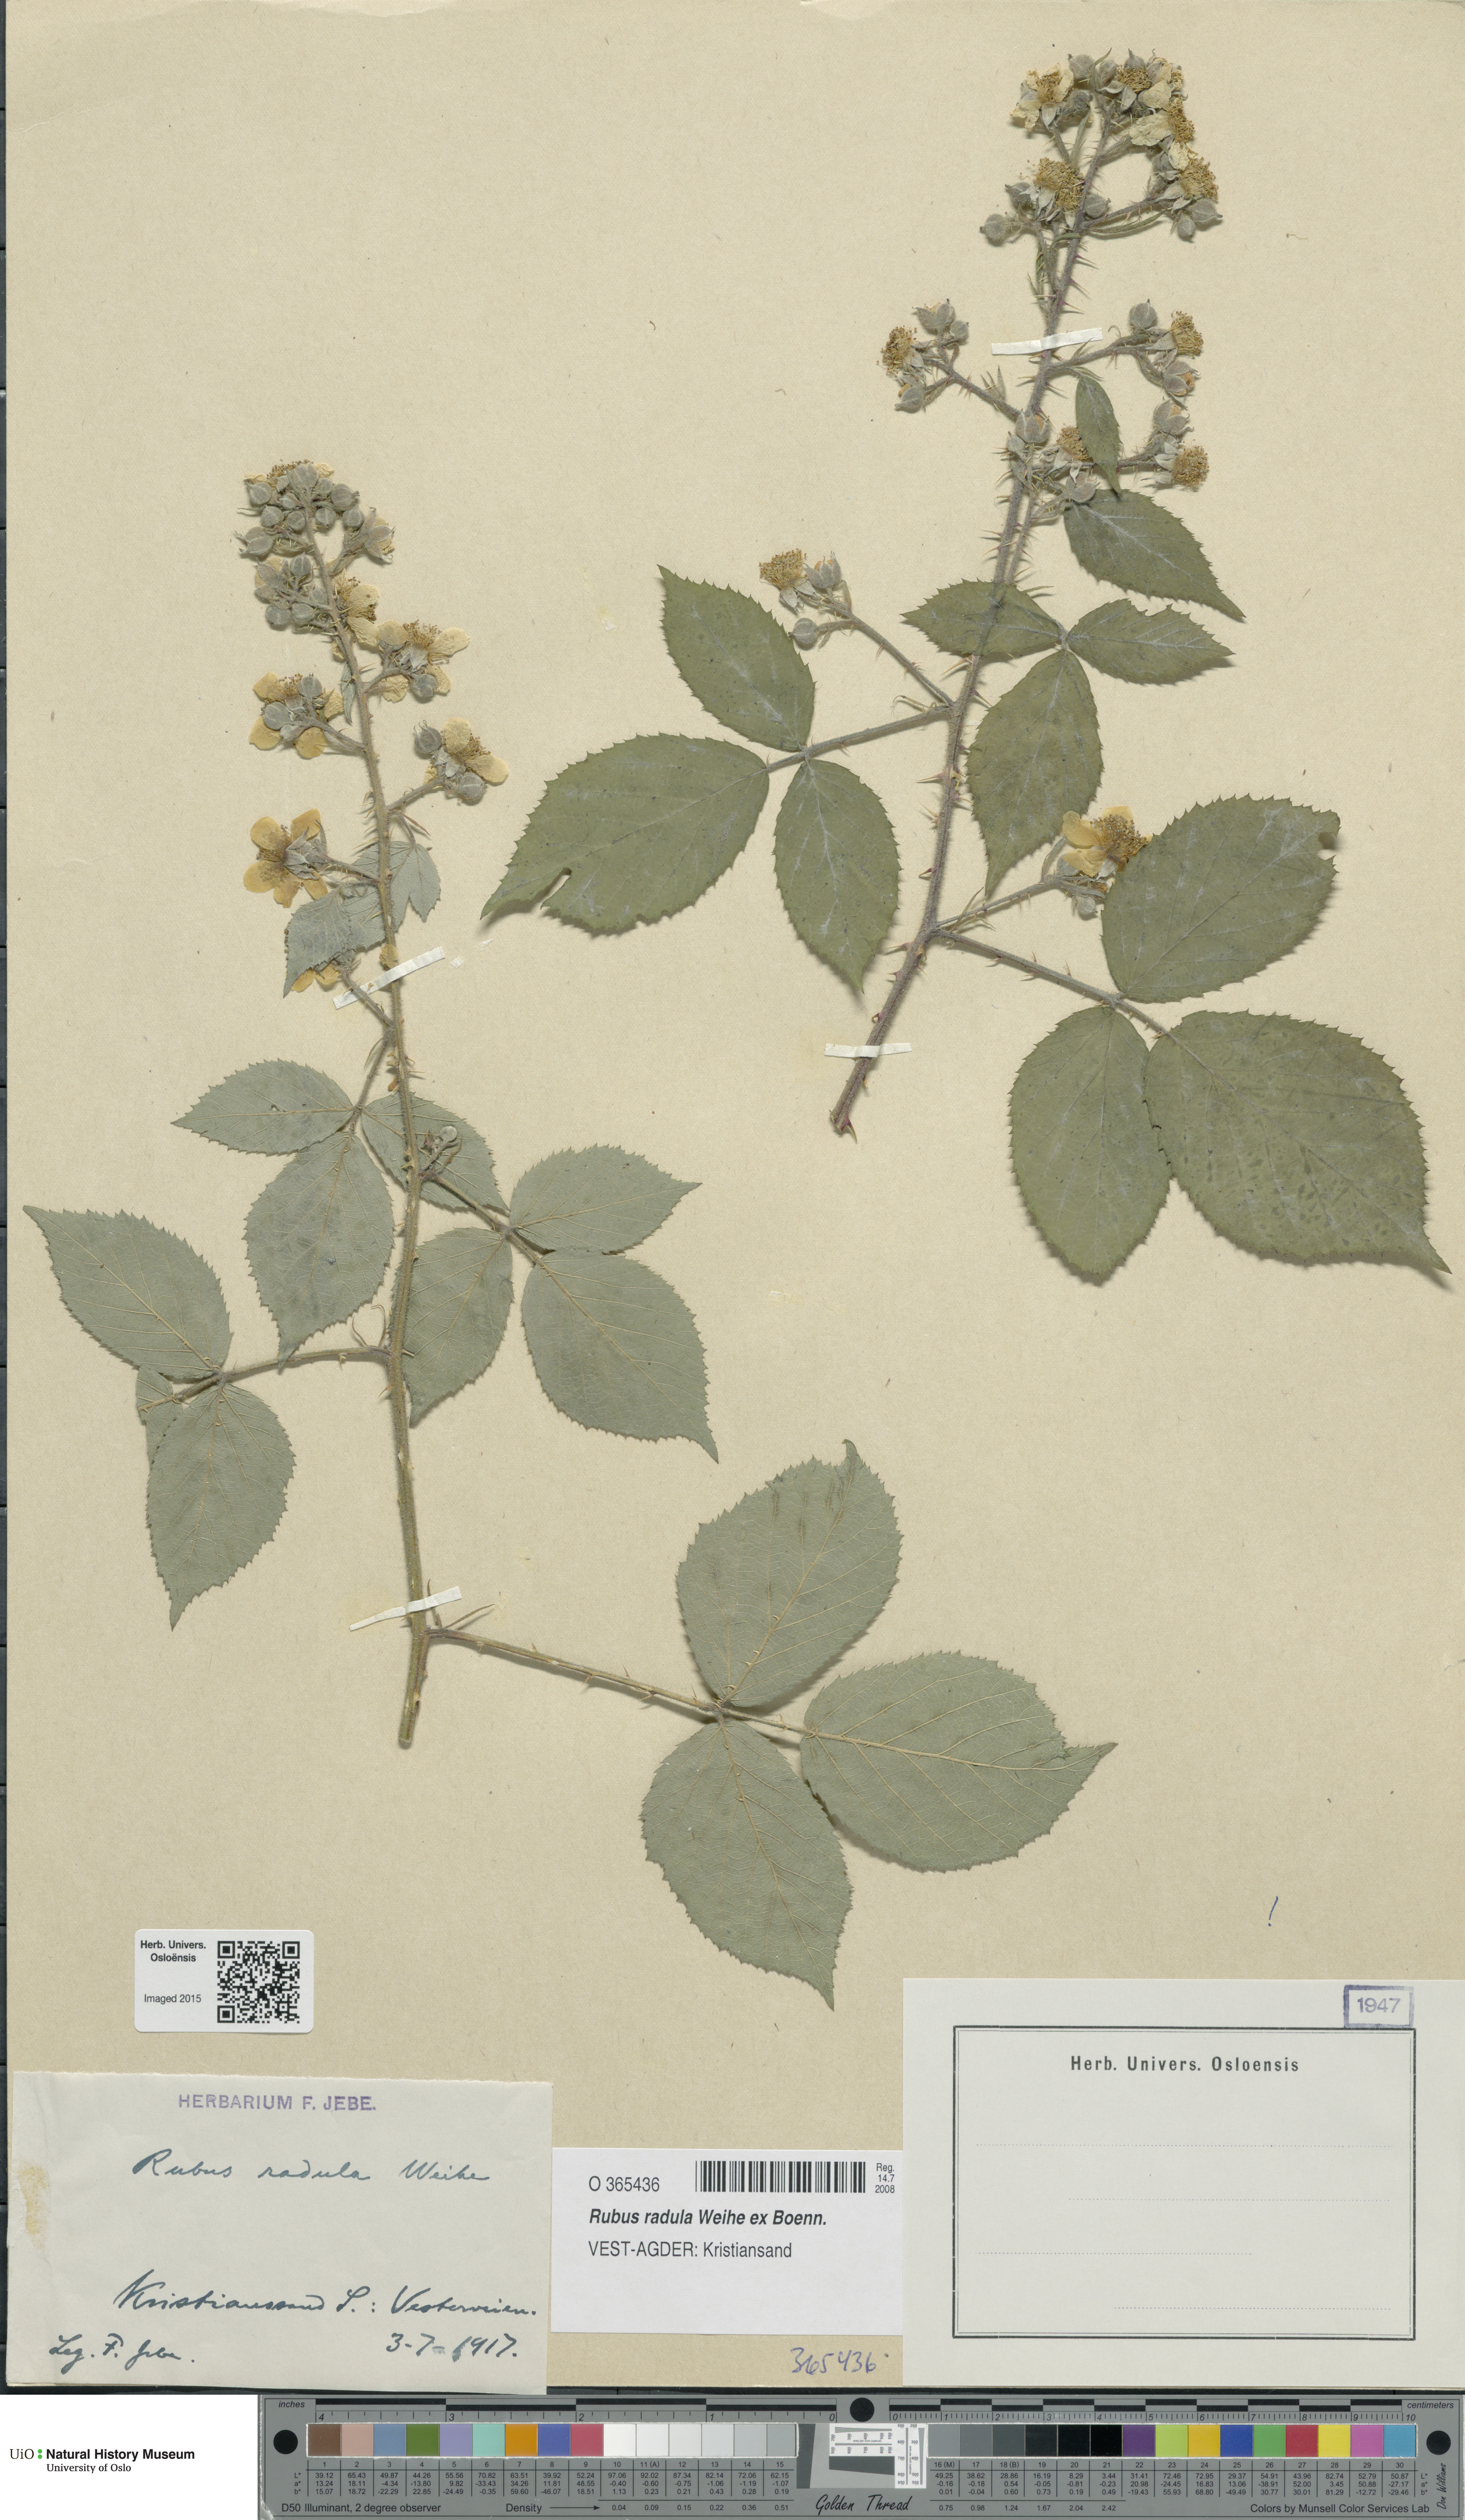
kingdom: Plantae
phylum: Tracheophyta
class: Magnoliopsida
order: Rosales
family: Rosaceae
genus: Rubus
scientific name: Rubus radula
